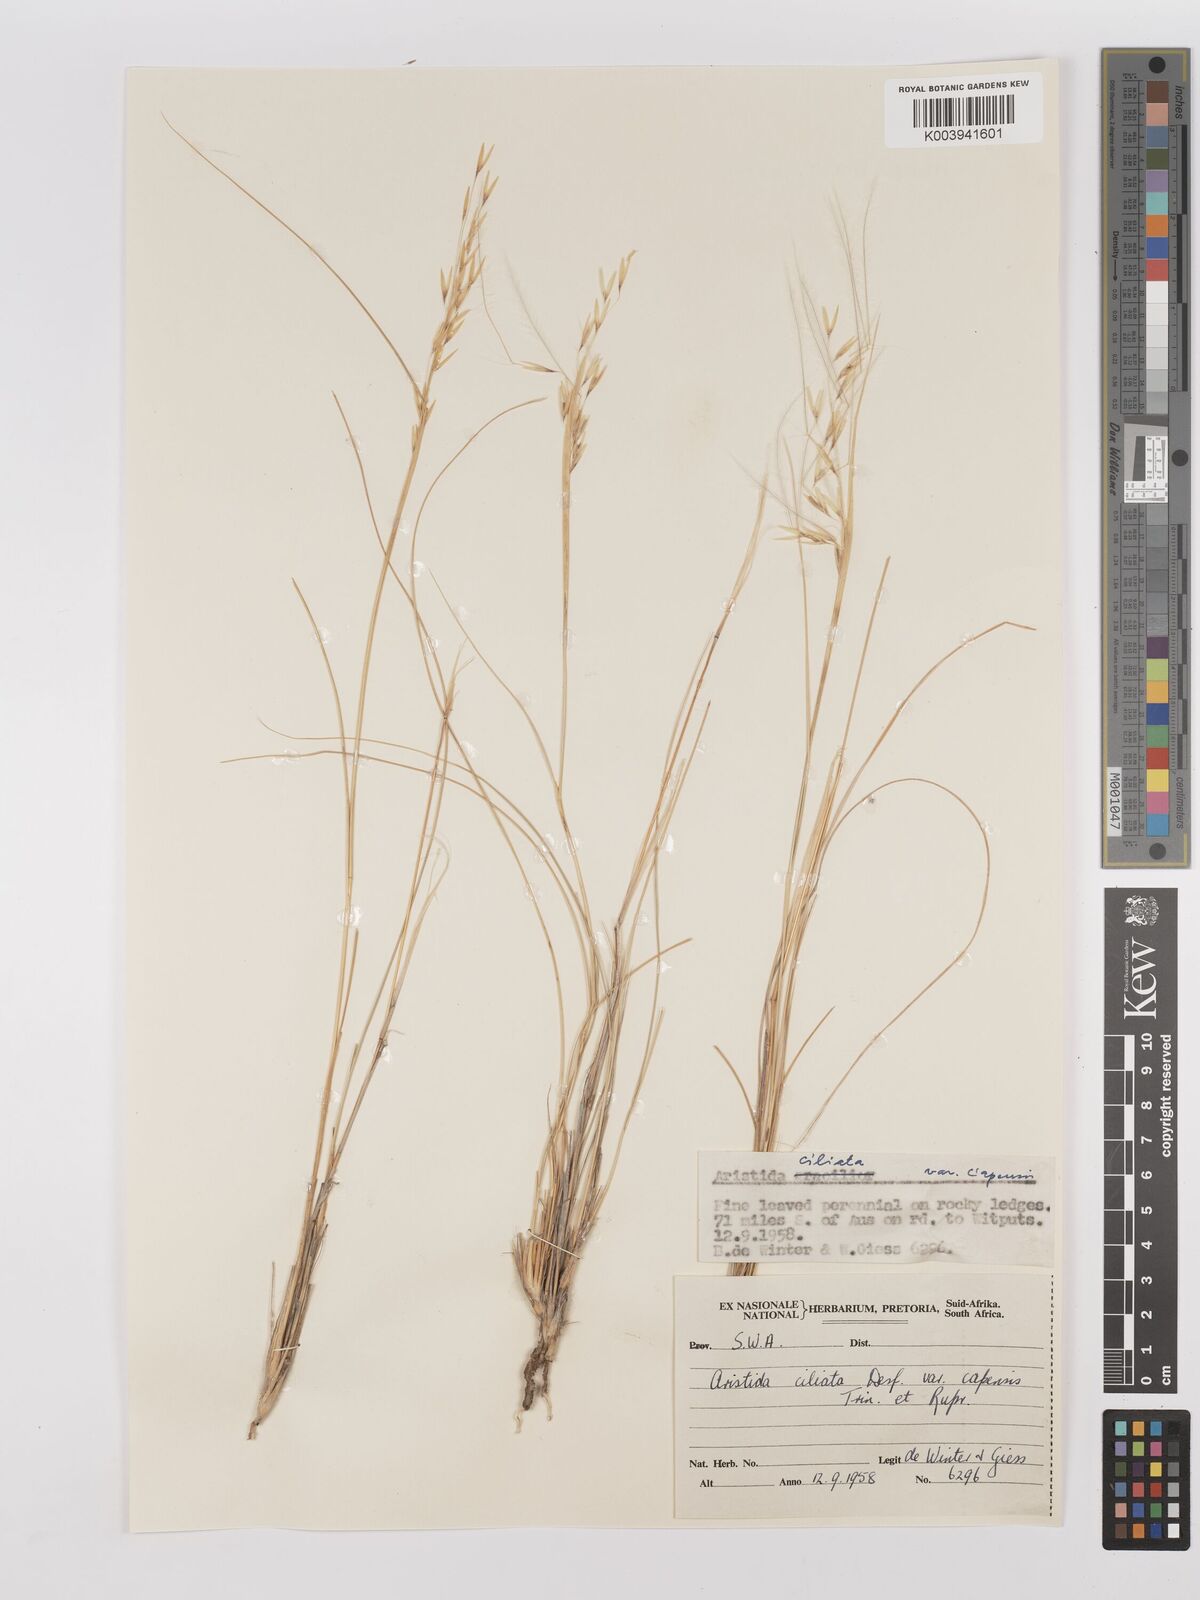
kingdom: Plantae
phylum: Tracheophyta
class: Liliopsida
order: Poales
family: Poaceae
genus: Stipagrostis
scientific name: Stipagrostis ciliata
